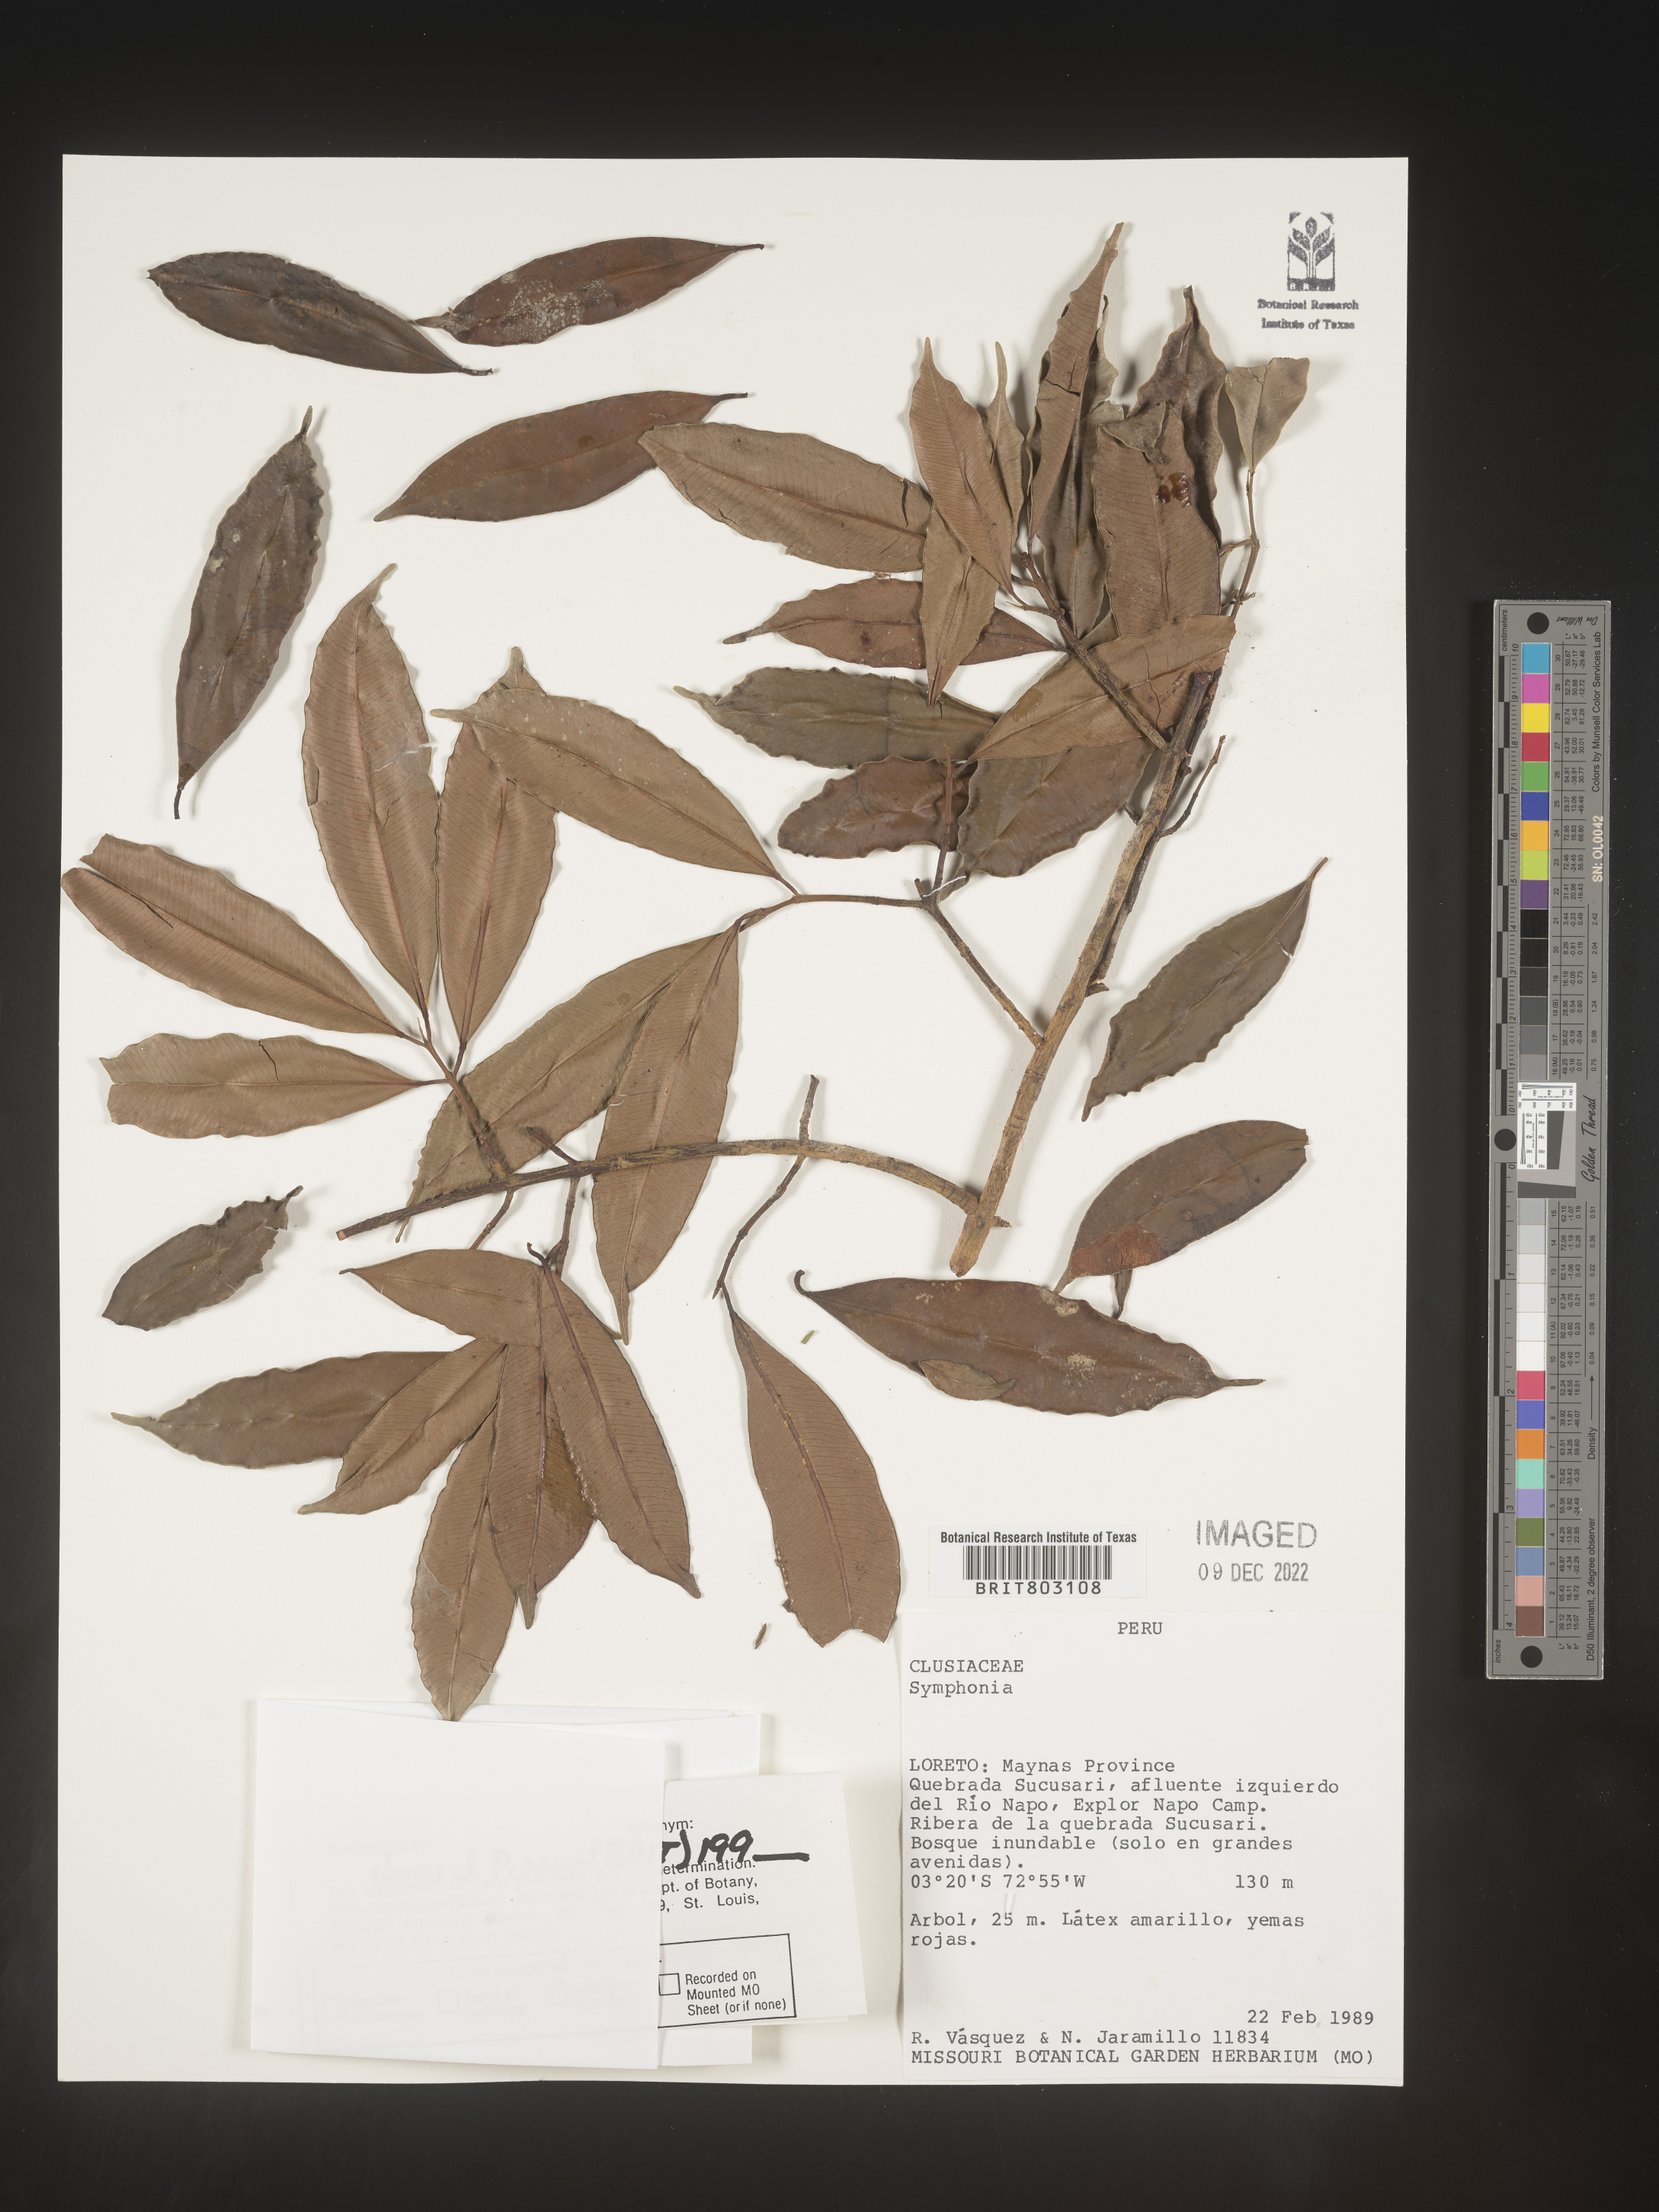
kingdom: Plantae
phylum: Tracheophyta
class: Magnoliopsida
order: Malpighiales
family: Clusiaceae
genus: Symphonia
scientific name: Symphonia
